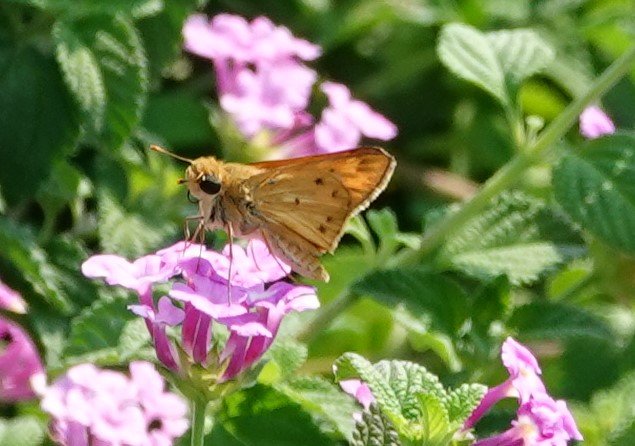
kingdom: Animalia
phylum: Arthropoda
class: Insecta
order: Lepidoptera
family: Hesperiidae
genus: Hylephila
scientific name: Hylephila phyleus
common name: Fiery Skipper
